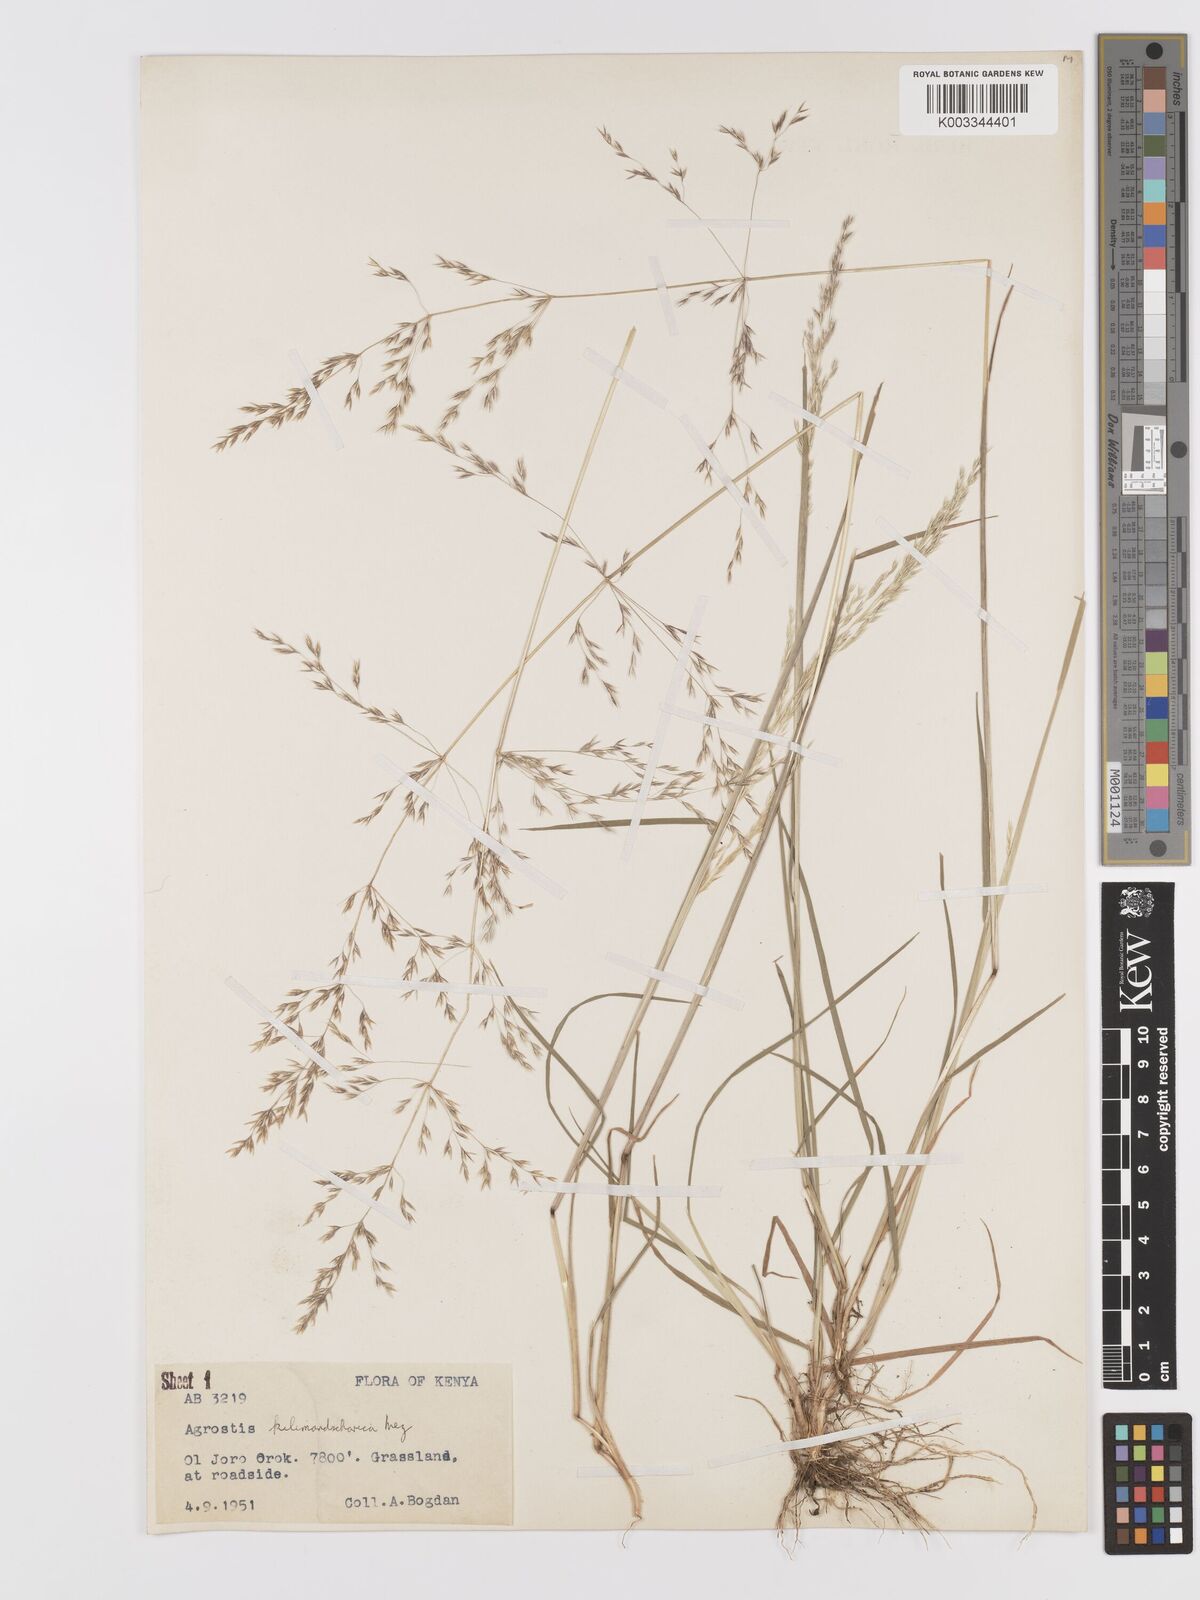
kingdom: Plantae
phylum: Tracheophyta
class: Liliopsida
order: Poales
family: Poaceae
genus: Agrostis
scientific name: Agrostis kilimandscharica
